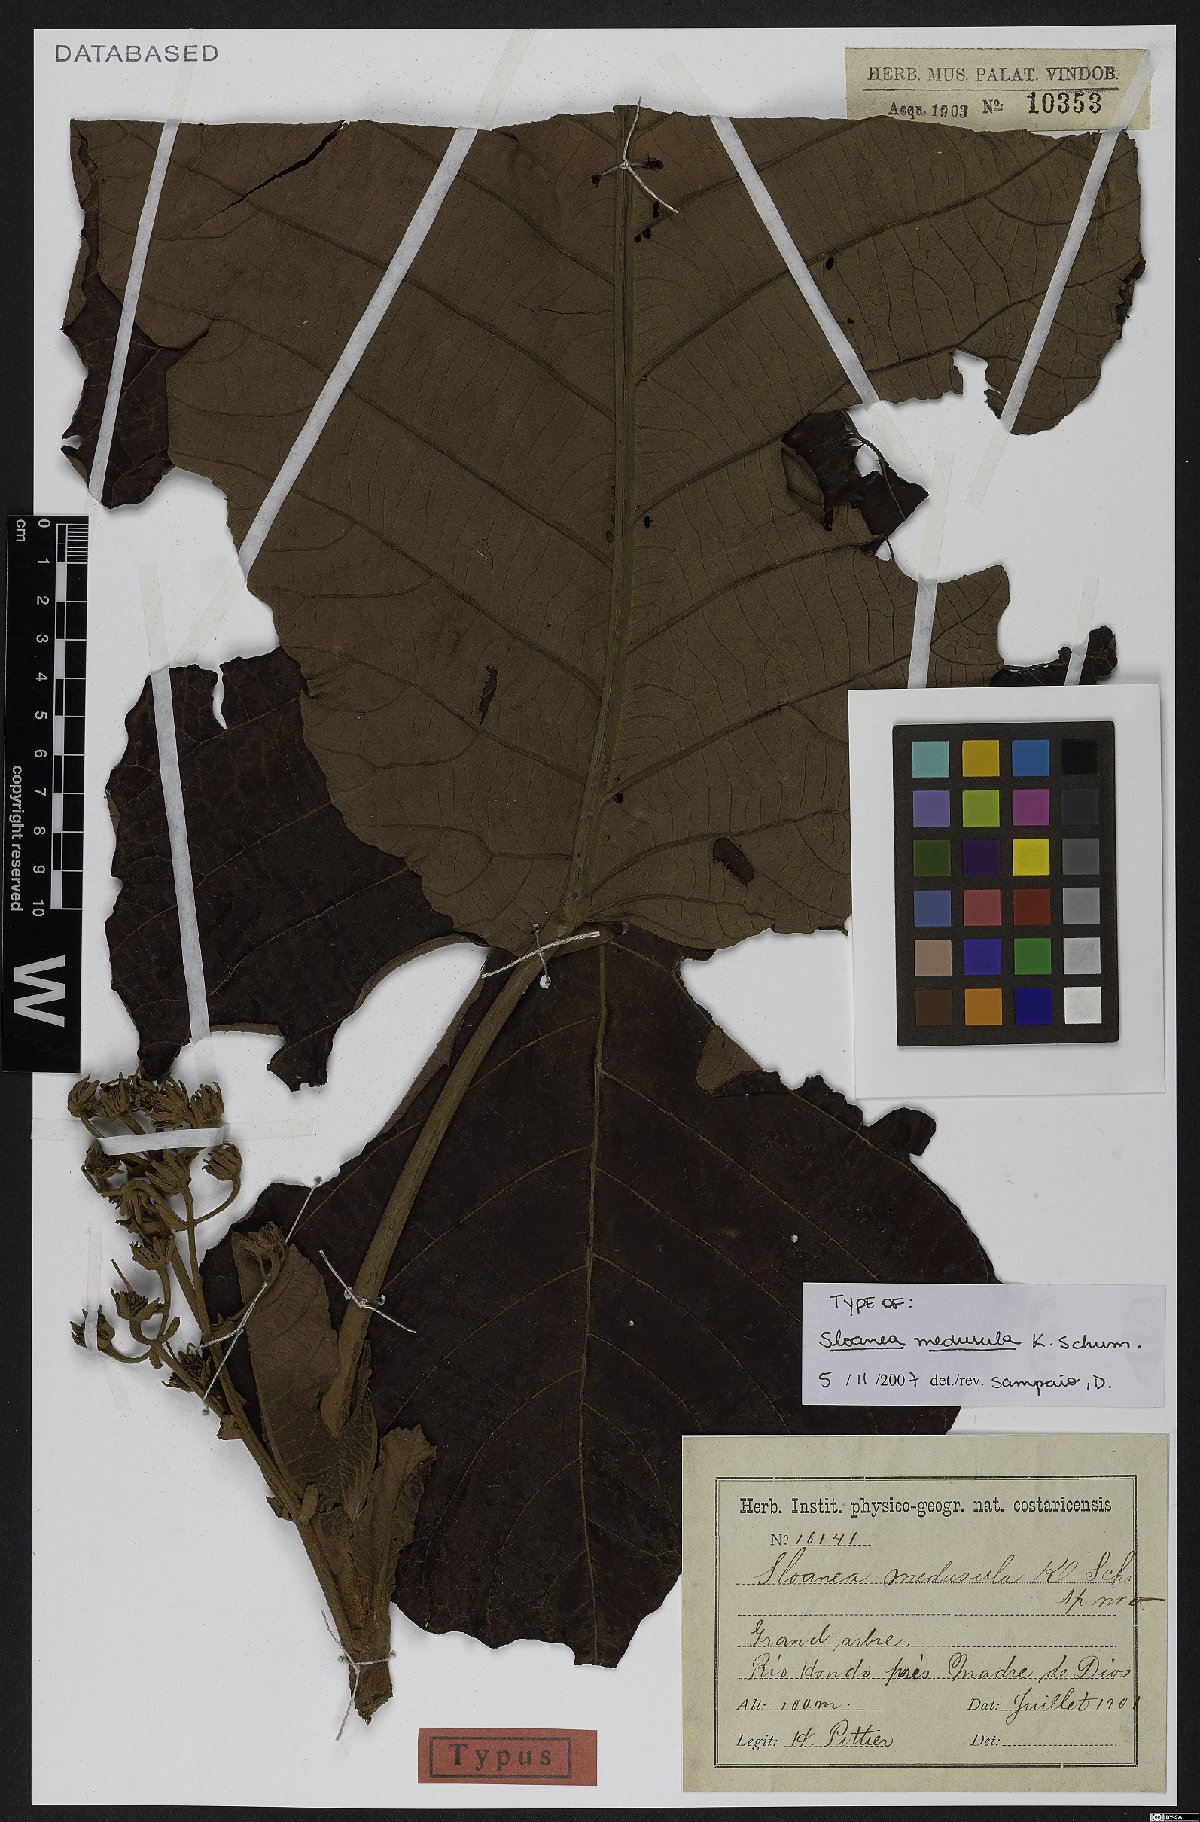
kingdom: Plantae
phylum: Tracheophyta
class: Magnoliopsida
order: Oxalidales
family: Elaeocarpaceae
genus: Sloanea
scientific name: Sloanea medusula
